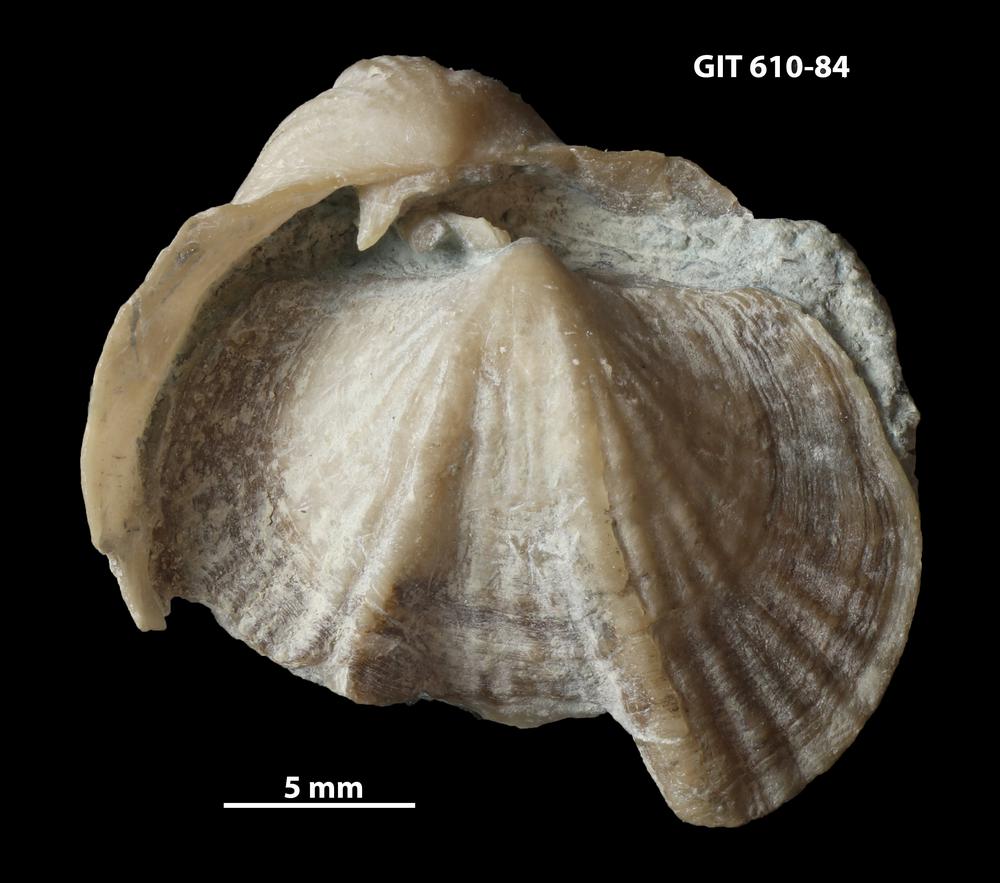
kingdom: Animalia
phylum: Brachiopoda
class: Rhynchonellata
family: Triplesiidae
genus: Ogmoplecia
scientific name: Ogmoplecia
